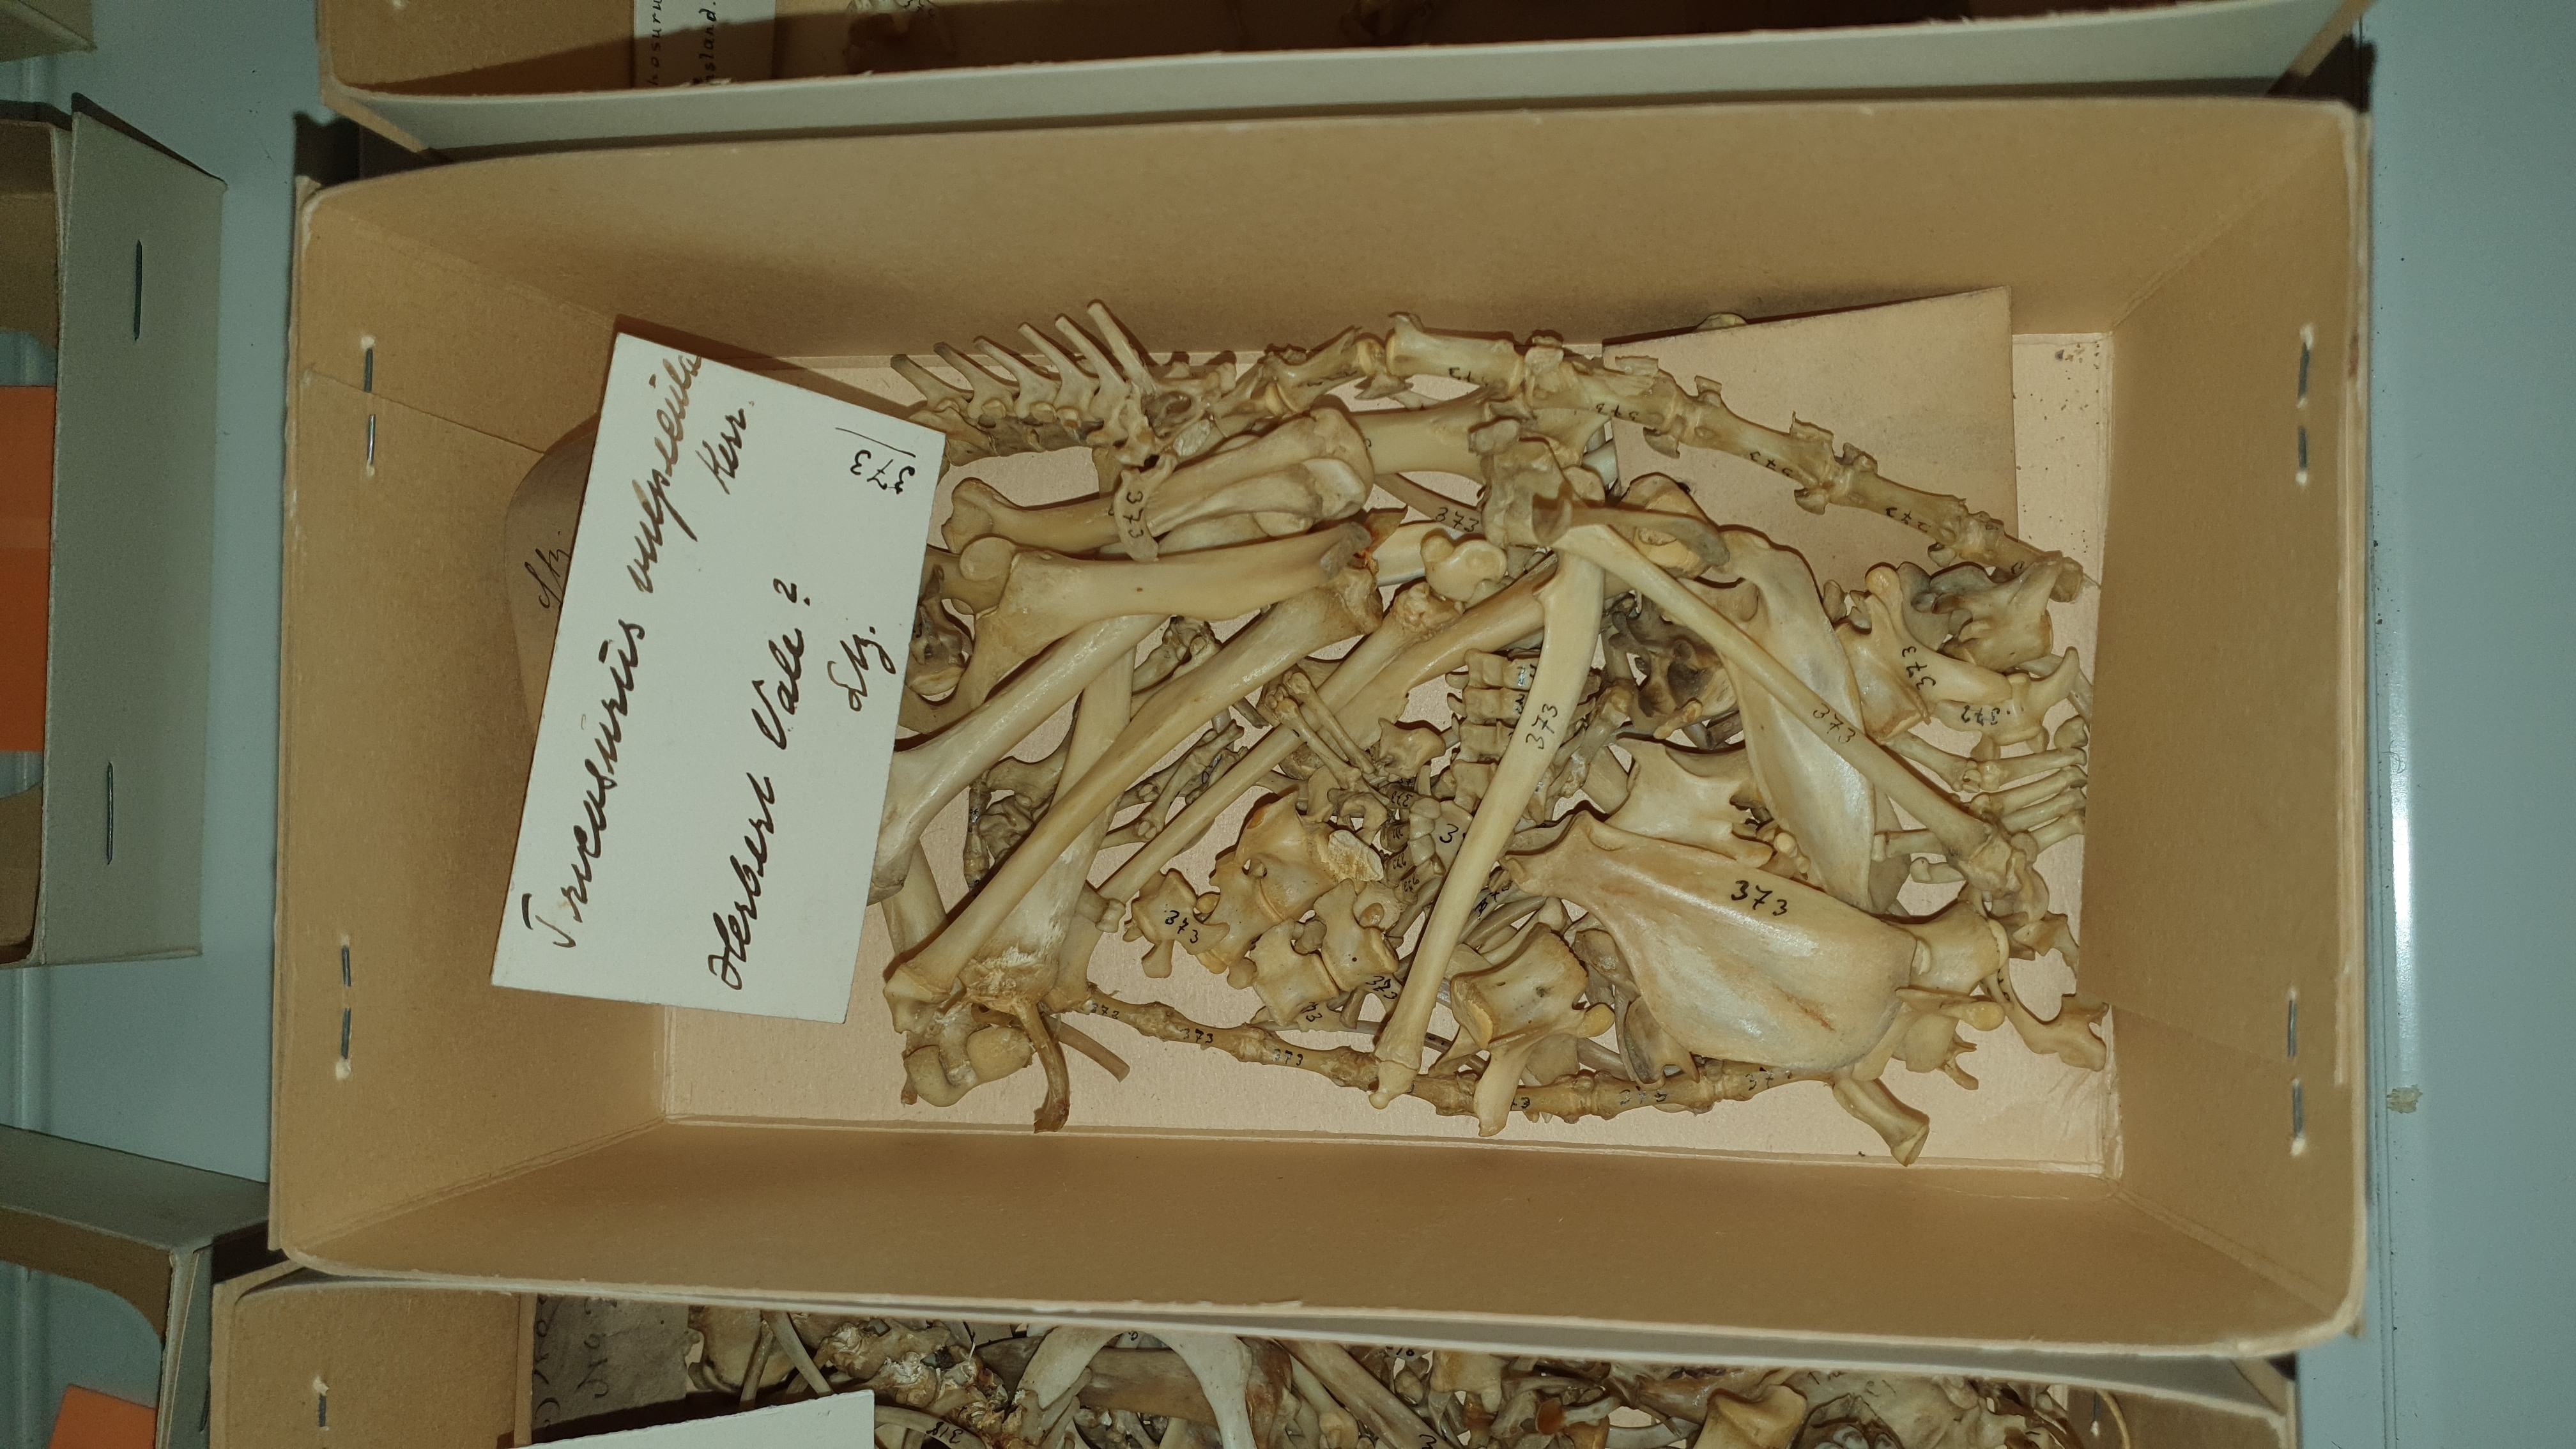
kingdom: Animalia
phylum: Chordata
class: Mammalia
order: Diprotodontia
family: Phalangeridae
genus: Trichosurus
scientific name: Trichosurus vulpecula
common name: Common brushtail
